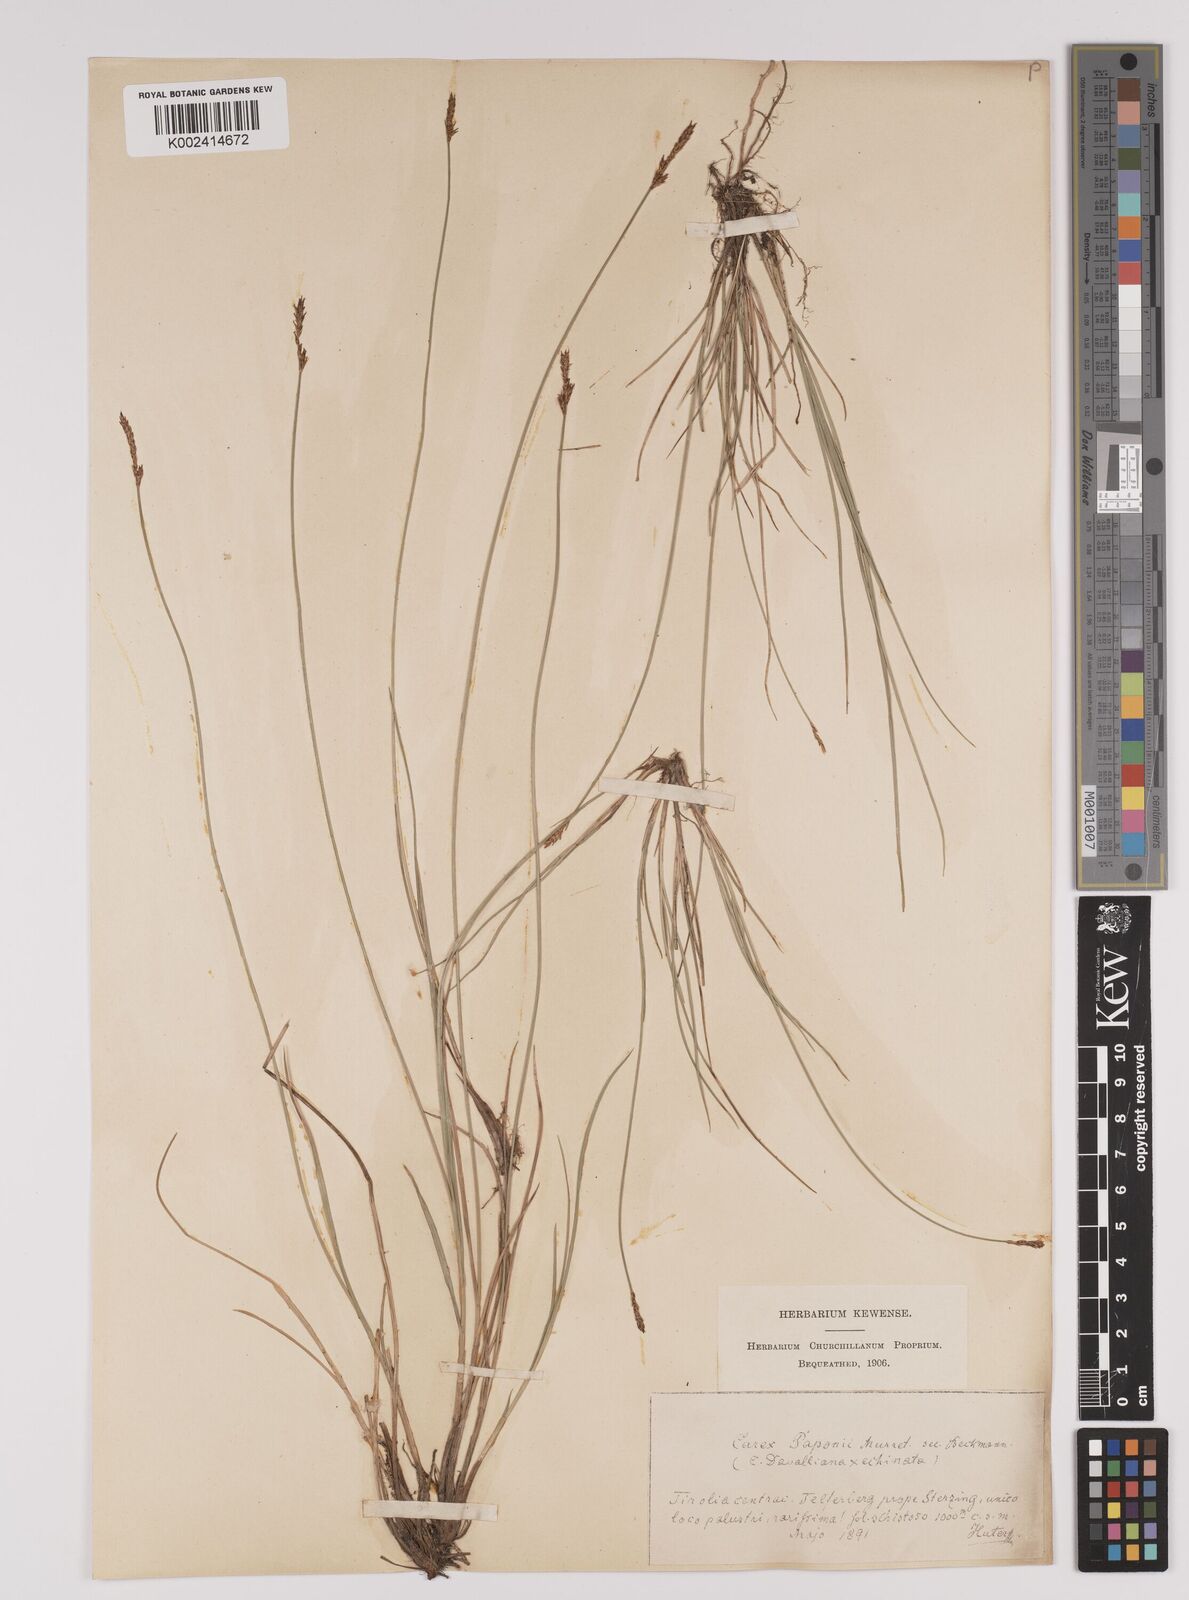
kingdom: Plantae
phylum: Tracheophyta
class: Liliopsida
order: Poales
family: Cyperaceae
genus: Carex
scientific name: Carex davalliana
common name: Davall's sedge
